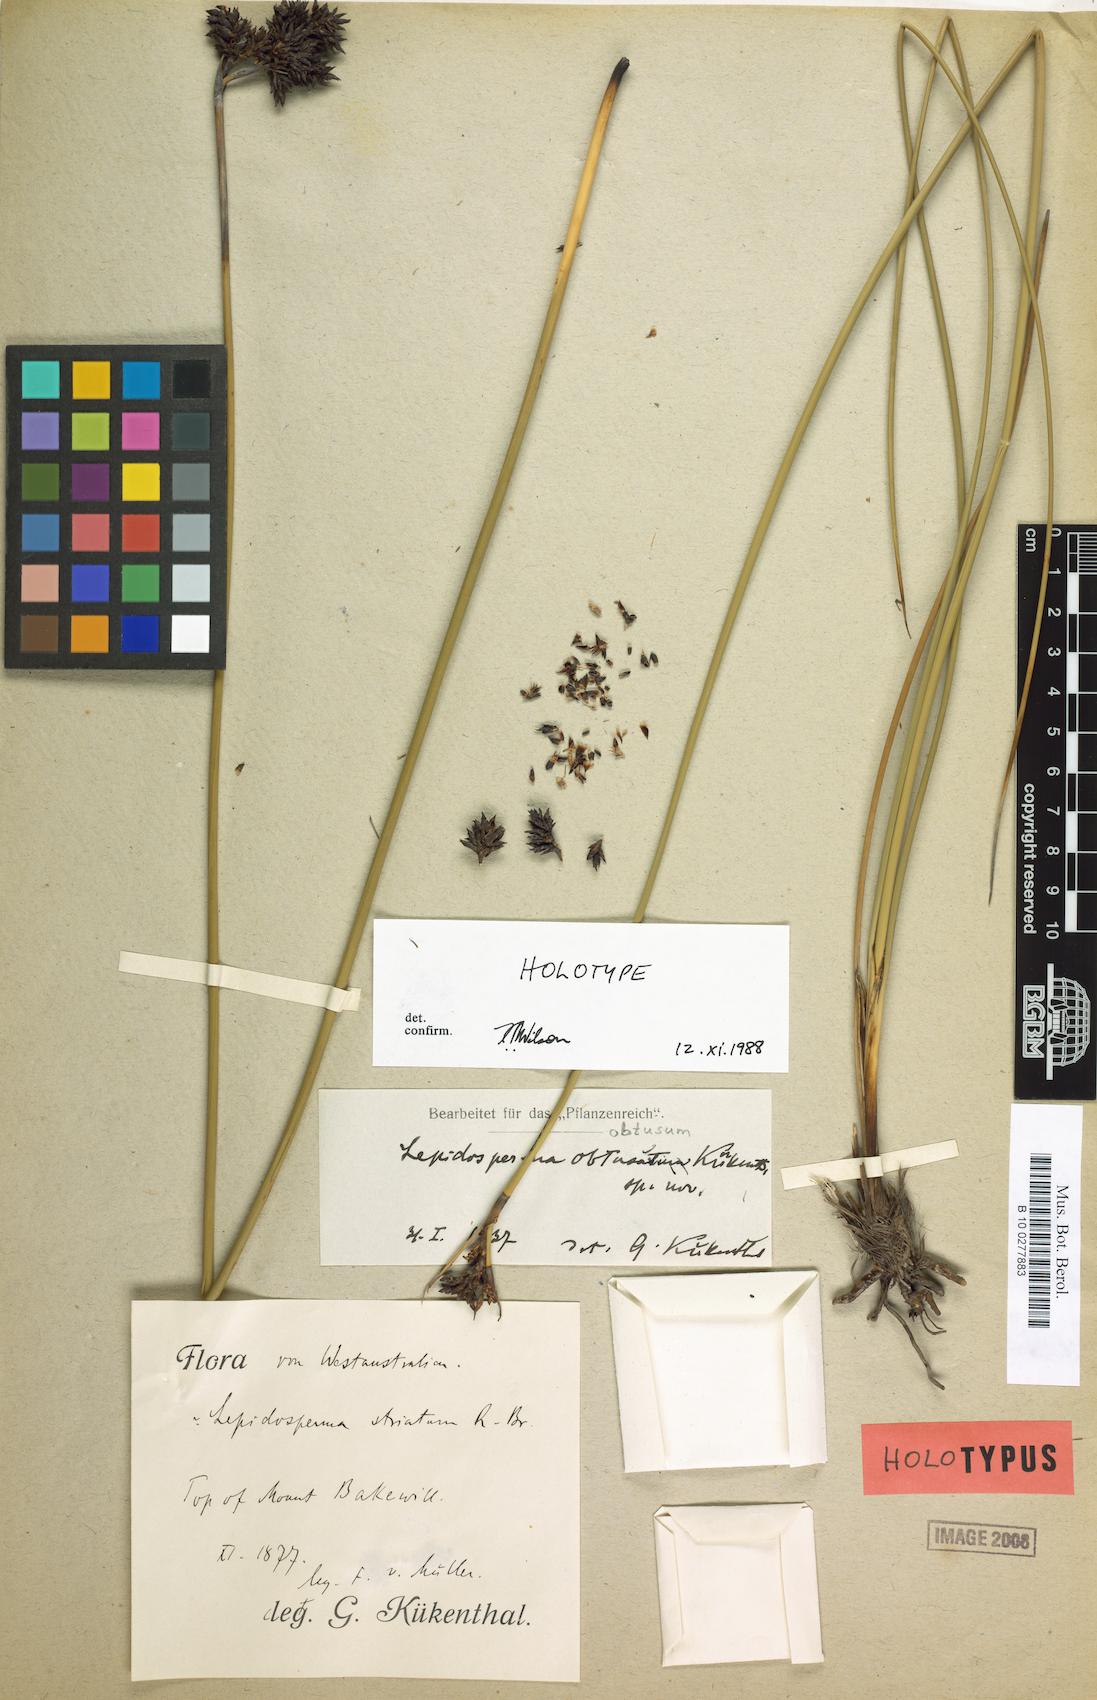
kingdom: Plantae
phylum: Tracheophyta
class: Liliopsida
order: Poales
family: Cyperaceae
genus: Lepidosperma
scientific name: Lepidosperma obtusum
